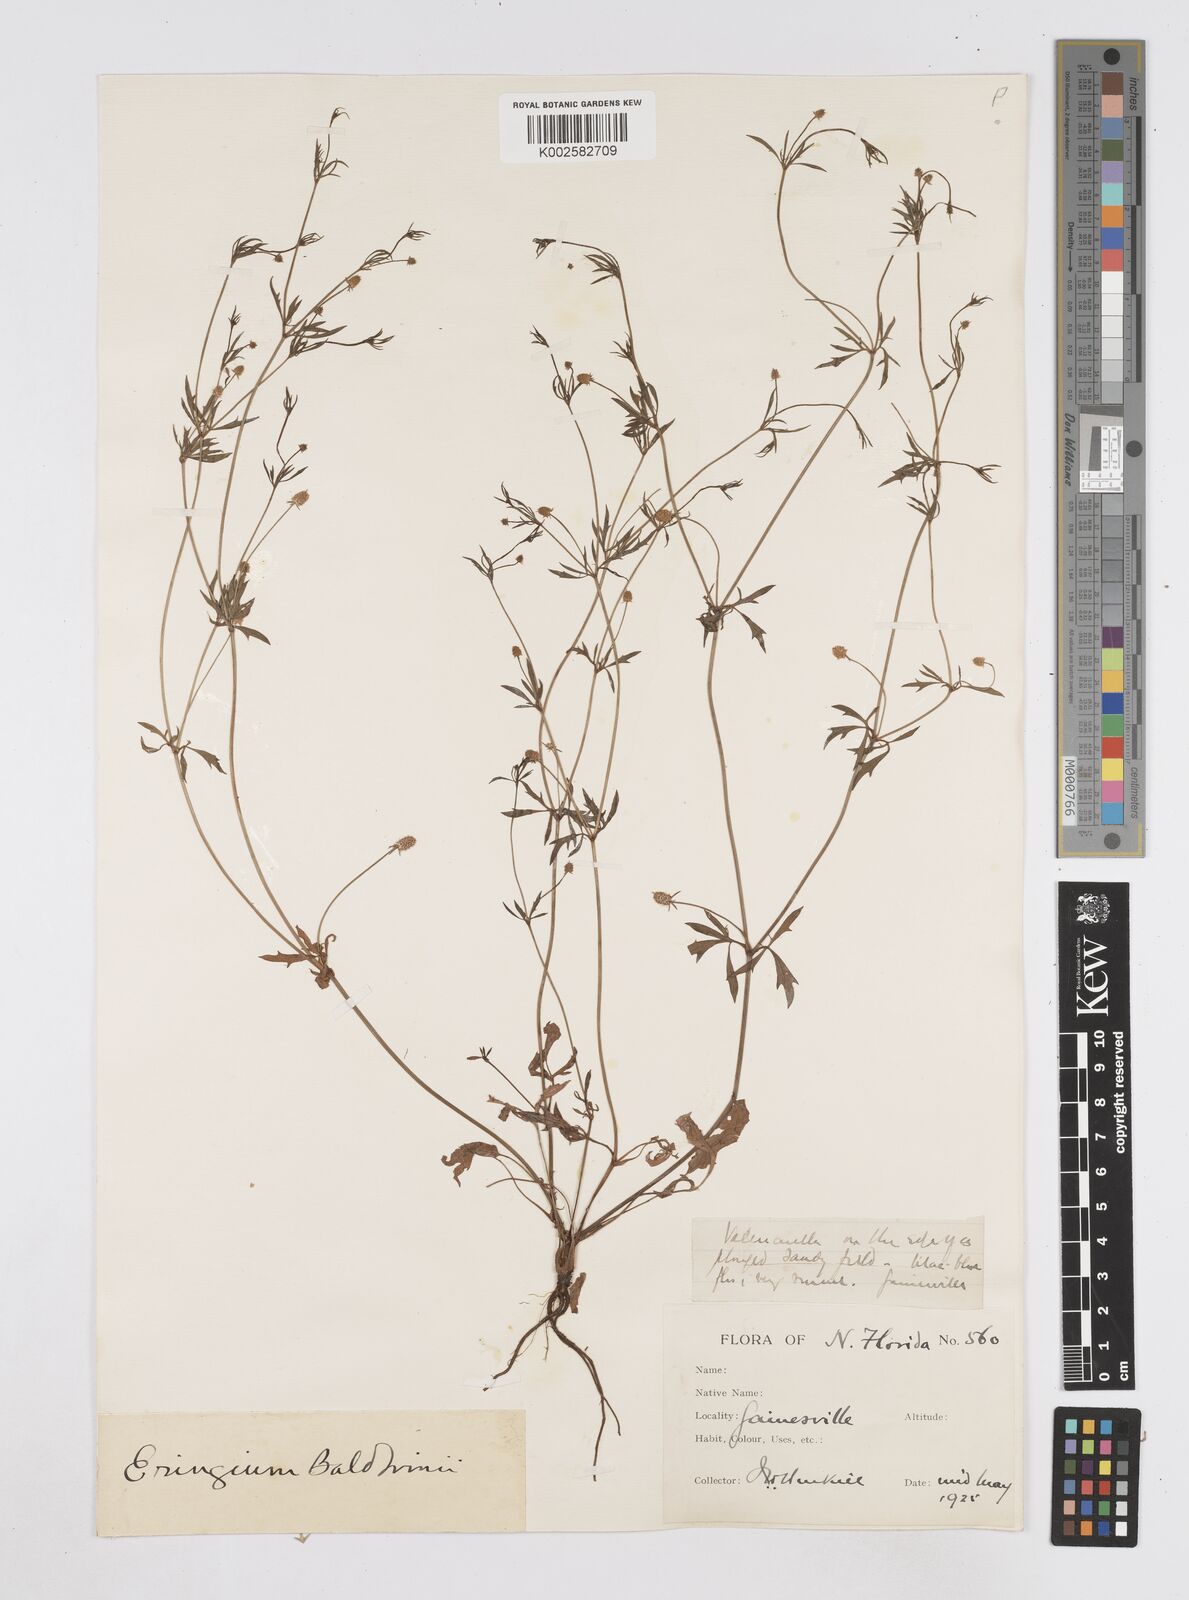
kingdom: Plantae
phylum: Tracheophyta
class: Magnoliopsida
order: Apiales
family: Apiaceae
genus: Eryngium
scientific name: Eryngium prostratum
